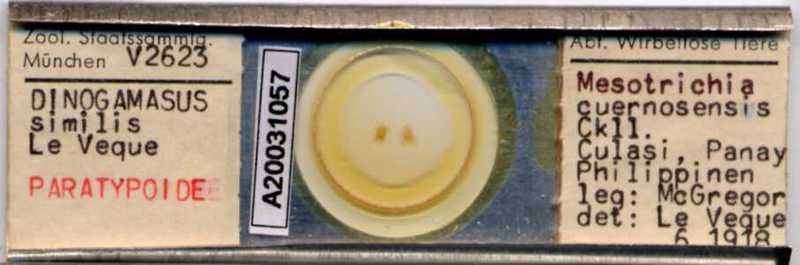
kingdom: Animalia
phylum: Arthropoda
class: Arachnida
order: Mesostigmata
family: Laelapidae
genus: Dinogamasus
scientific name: Dinogamasus
